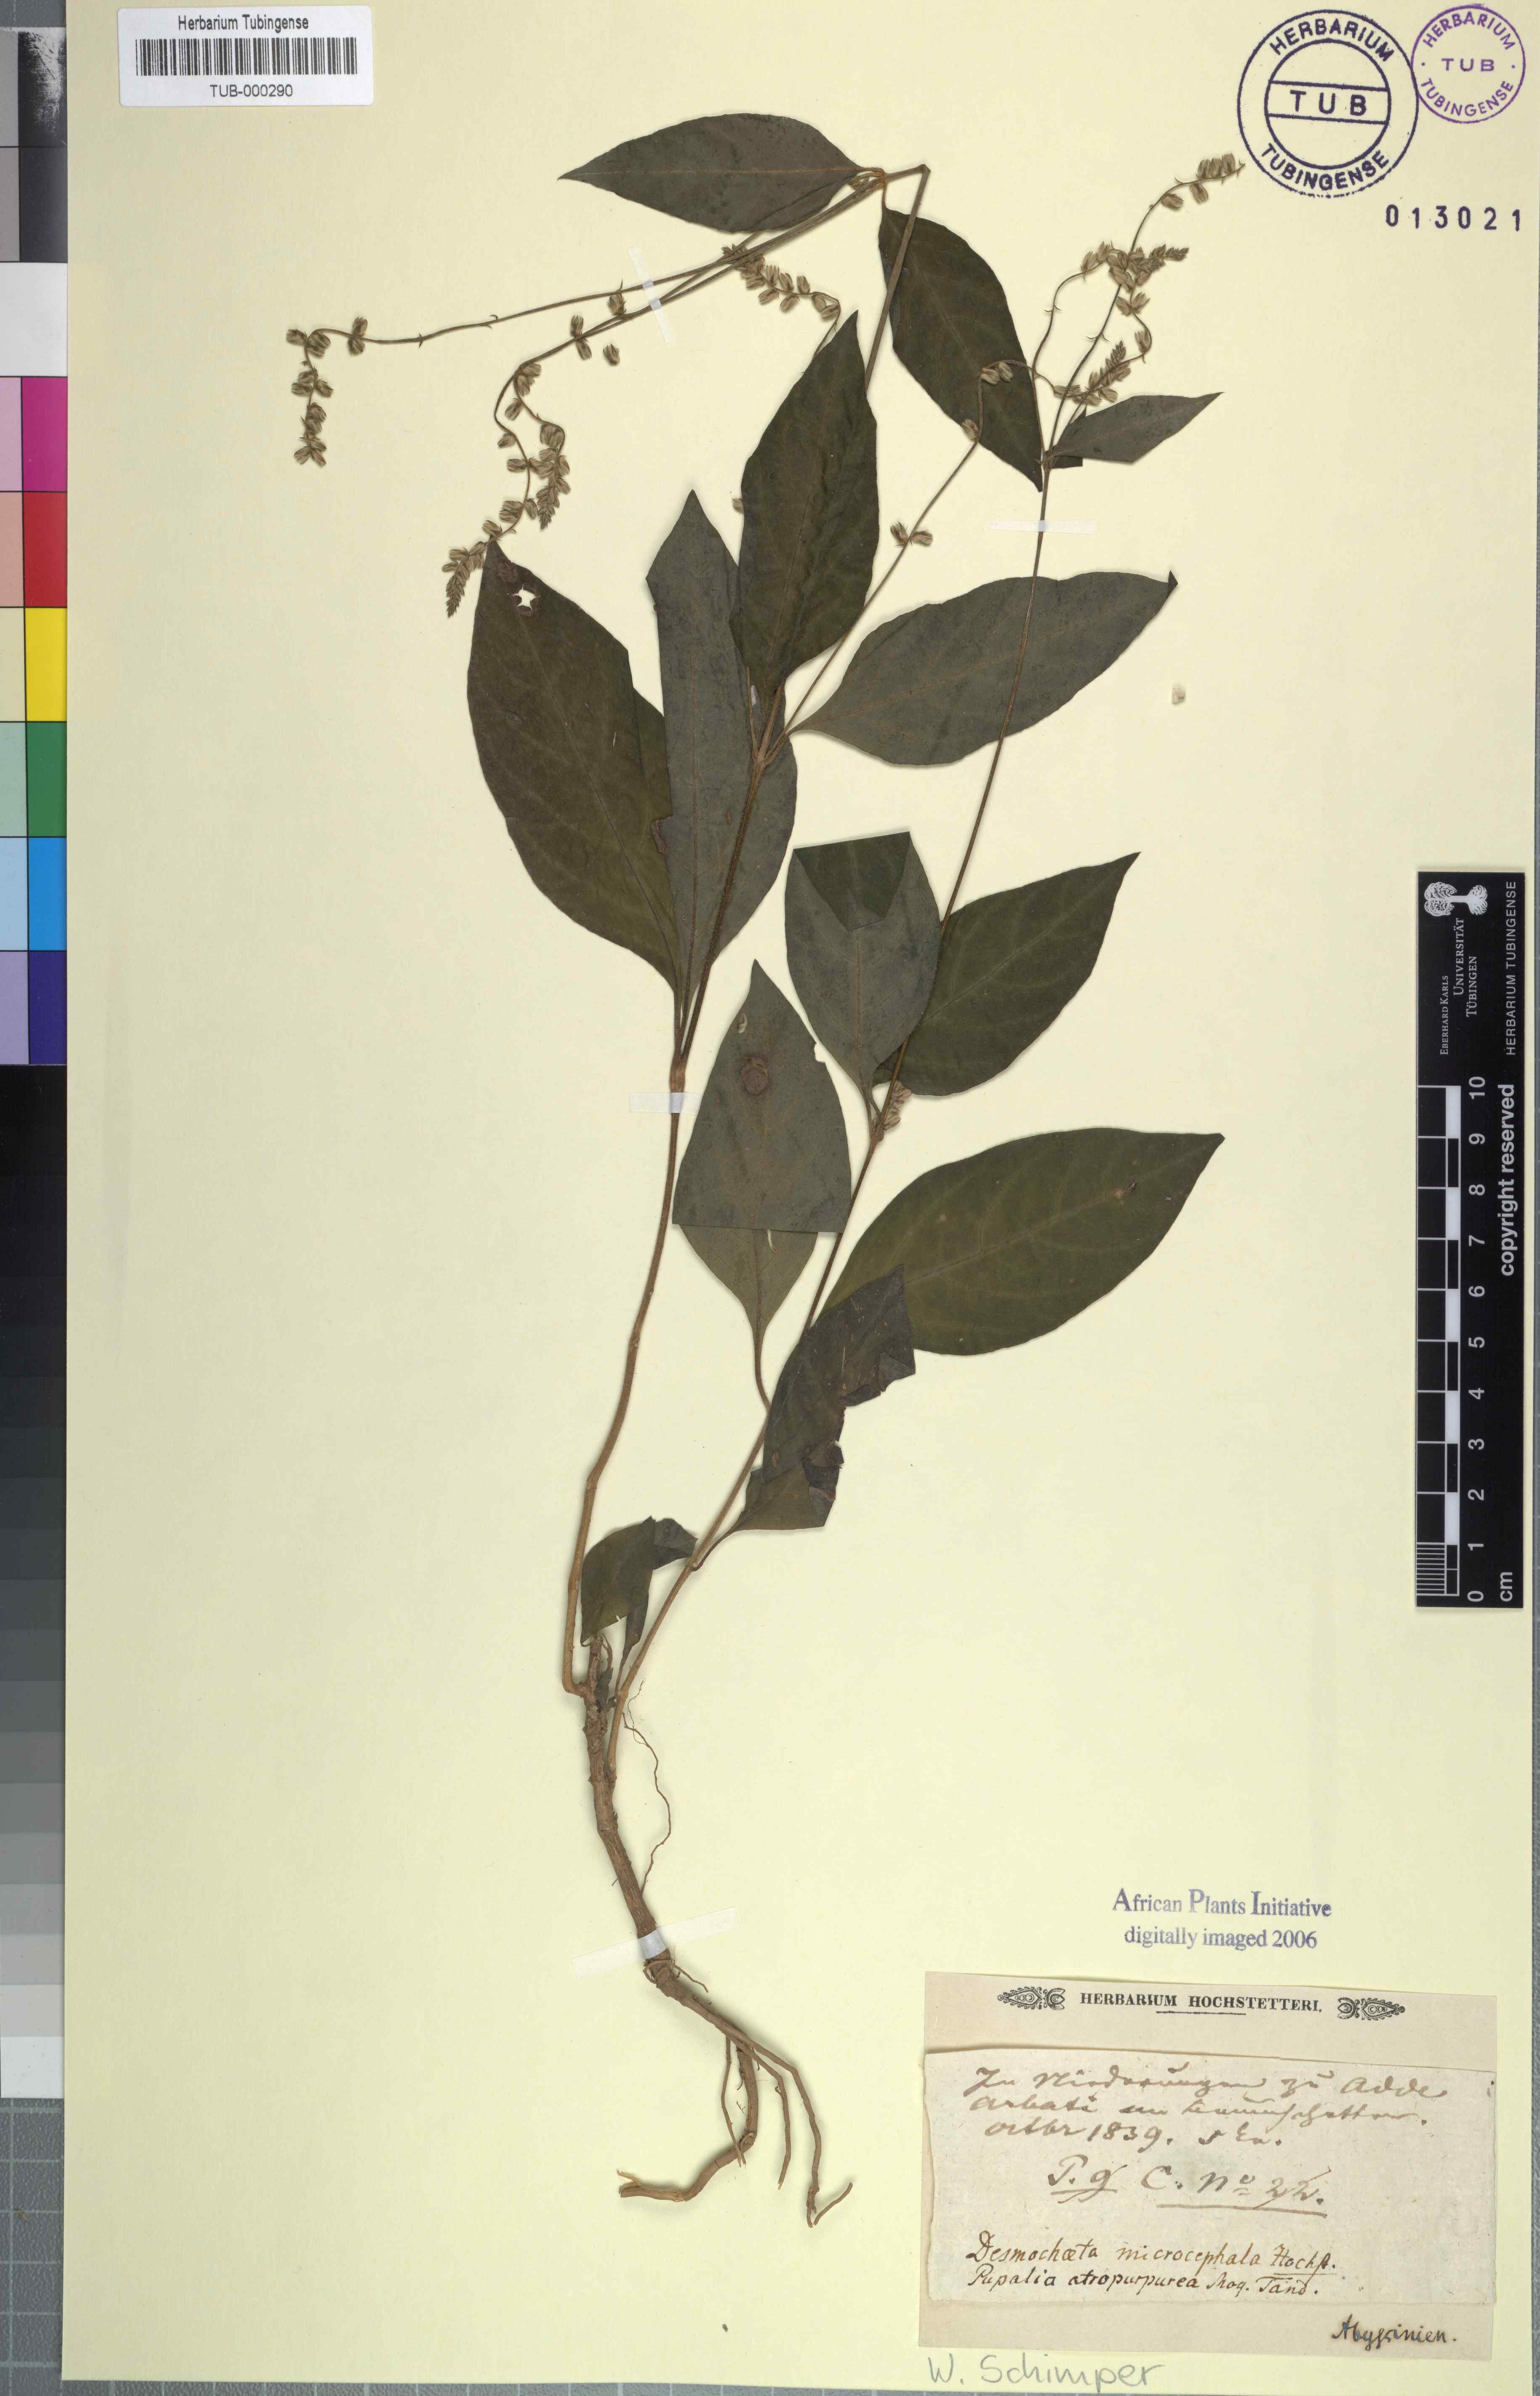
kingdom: Plantae
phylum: Tracheophyta
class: Magnoliopsida
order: Caryophyllales
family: Amaranthaceae
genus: Pupalia
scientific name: Pupalia lappacea
